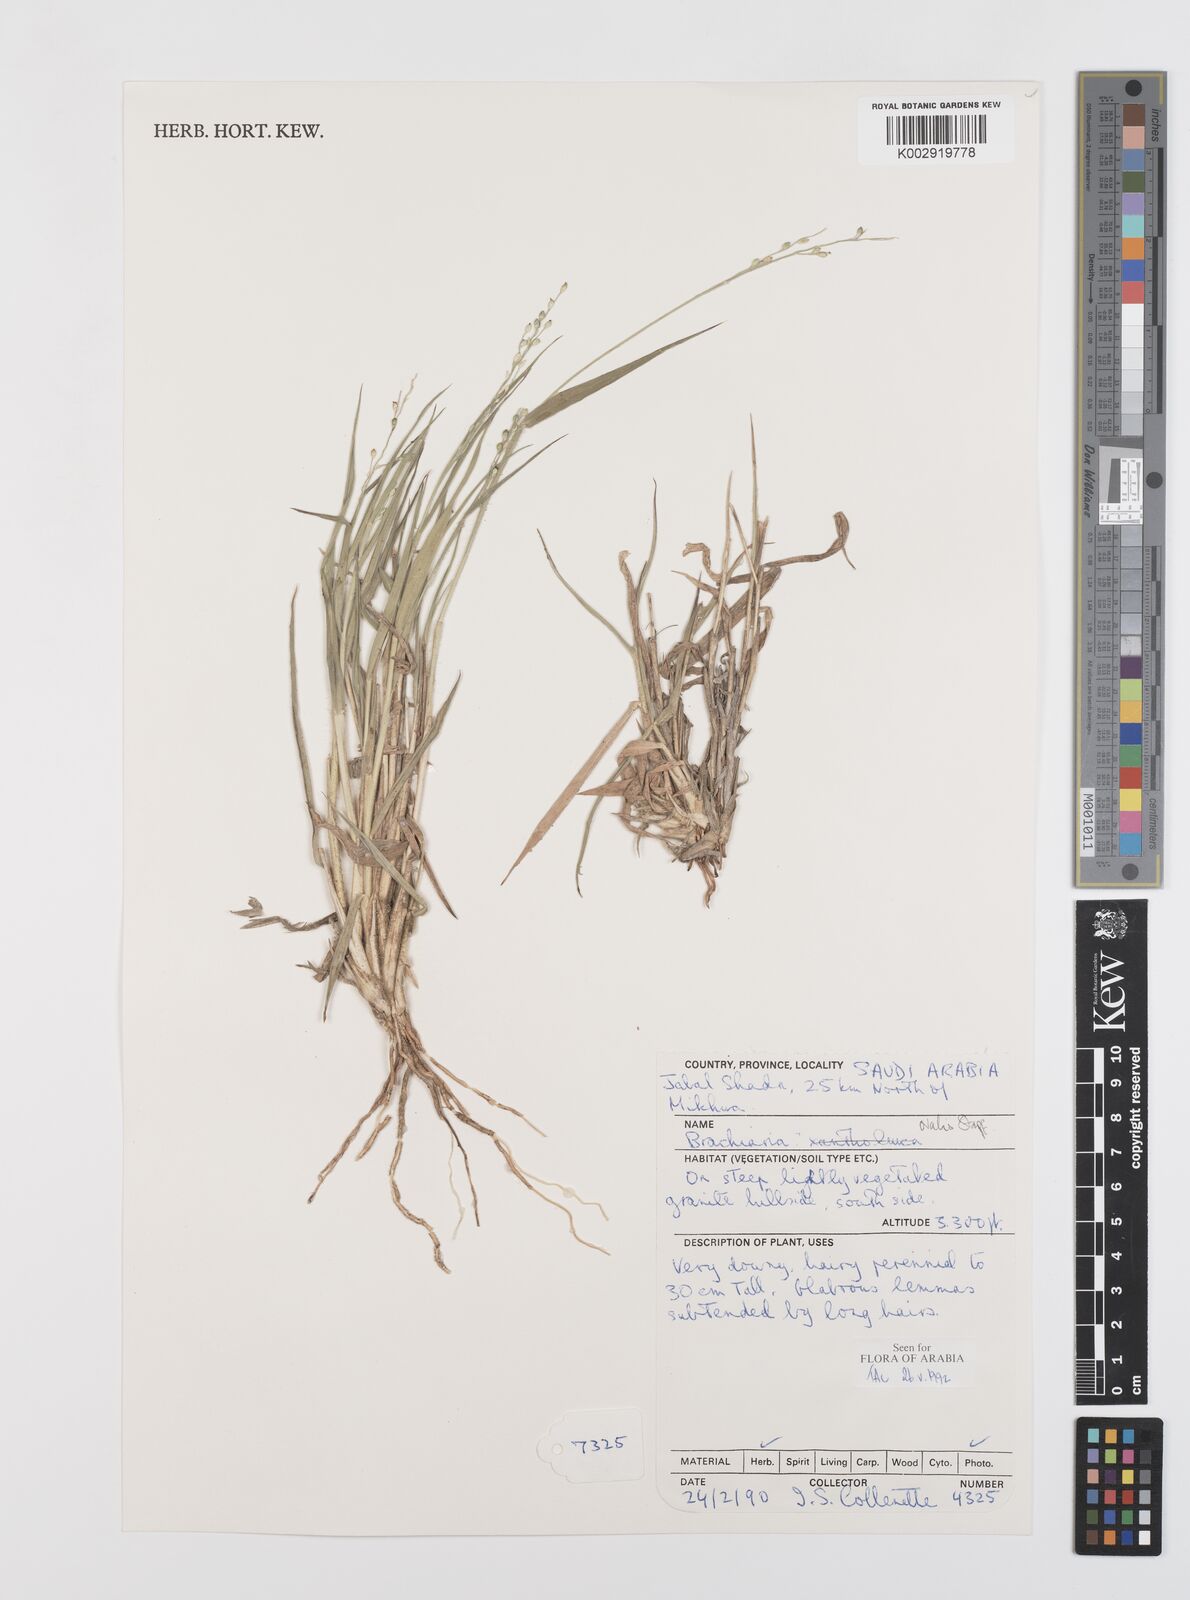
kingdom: Plantae
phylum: Tracheophyta
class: Liliopsida
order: Poales
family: Poaceae
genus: Urochloa
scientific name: Urochloa ovalis
